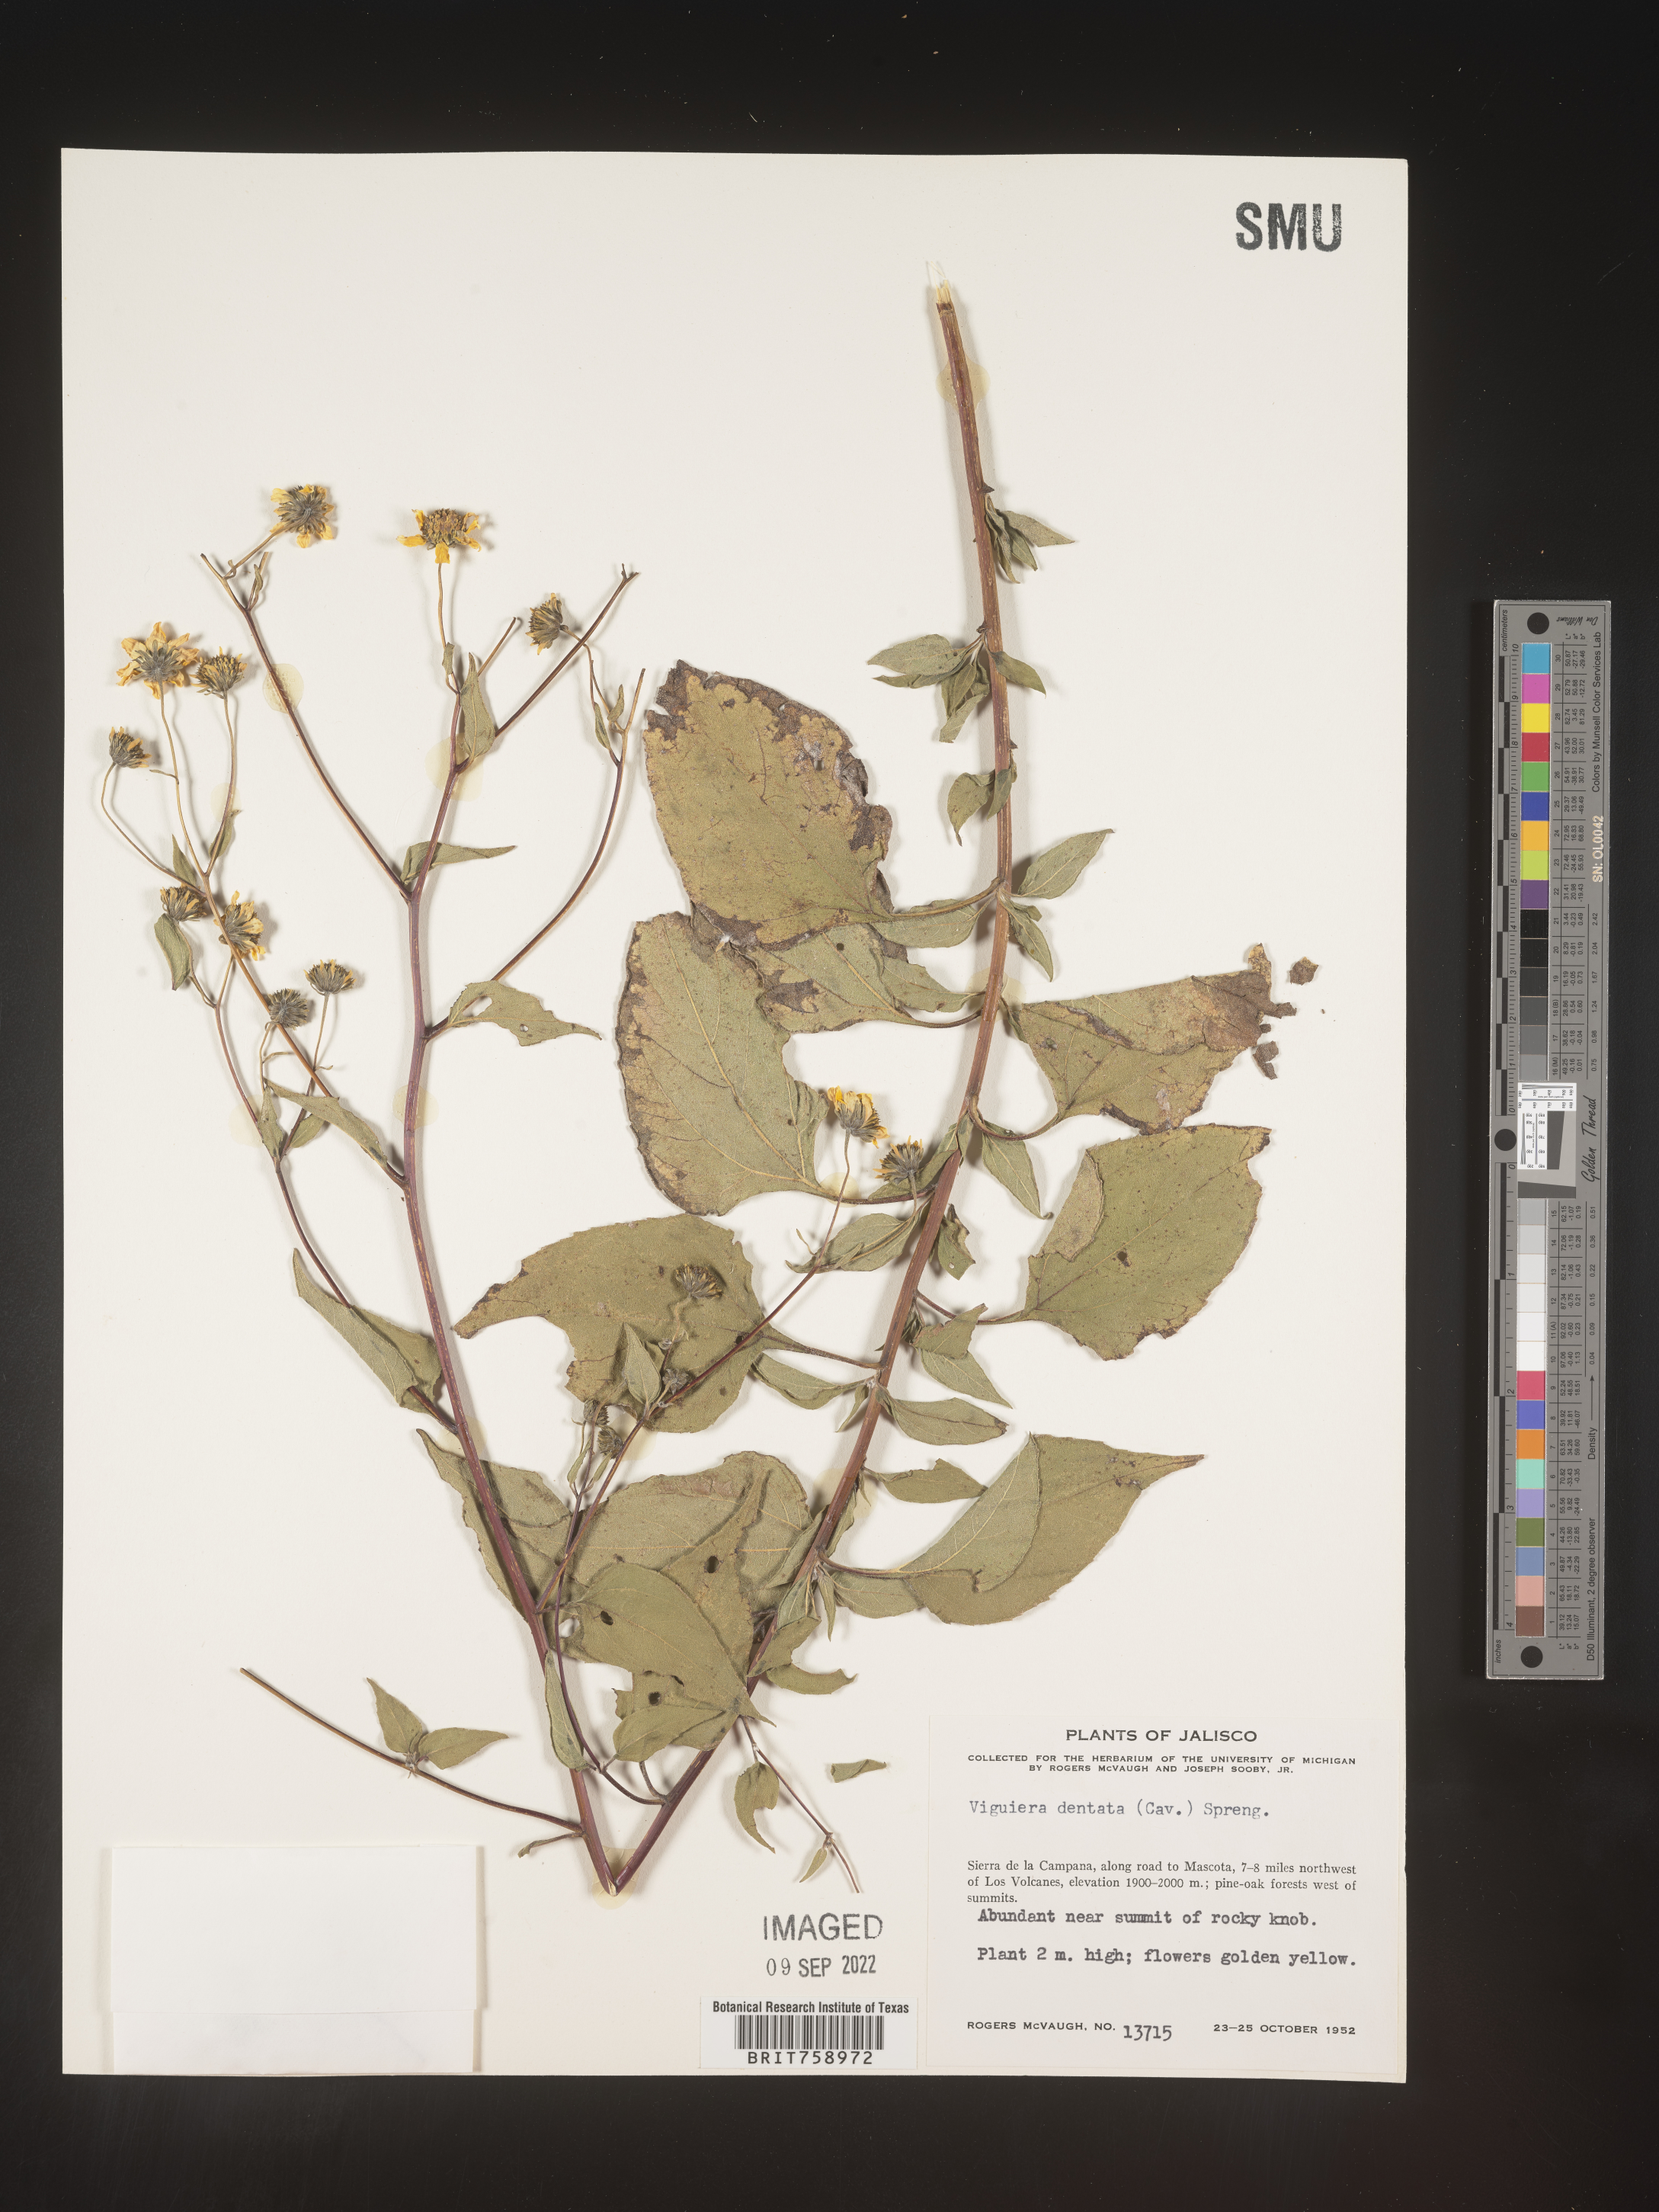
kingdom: Plantae
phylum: Tracheophyta
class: Magnoliopsida
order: Asterales
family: Asteraceae
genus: Viguiera
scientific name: Viguiera
